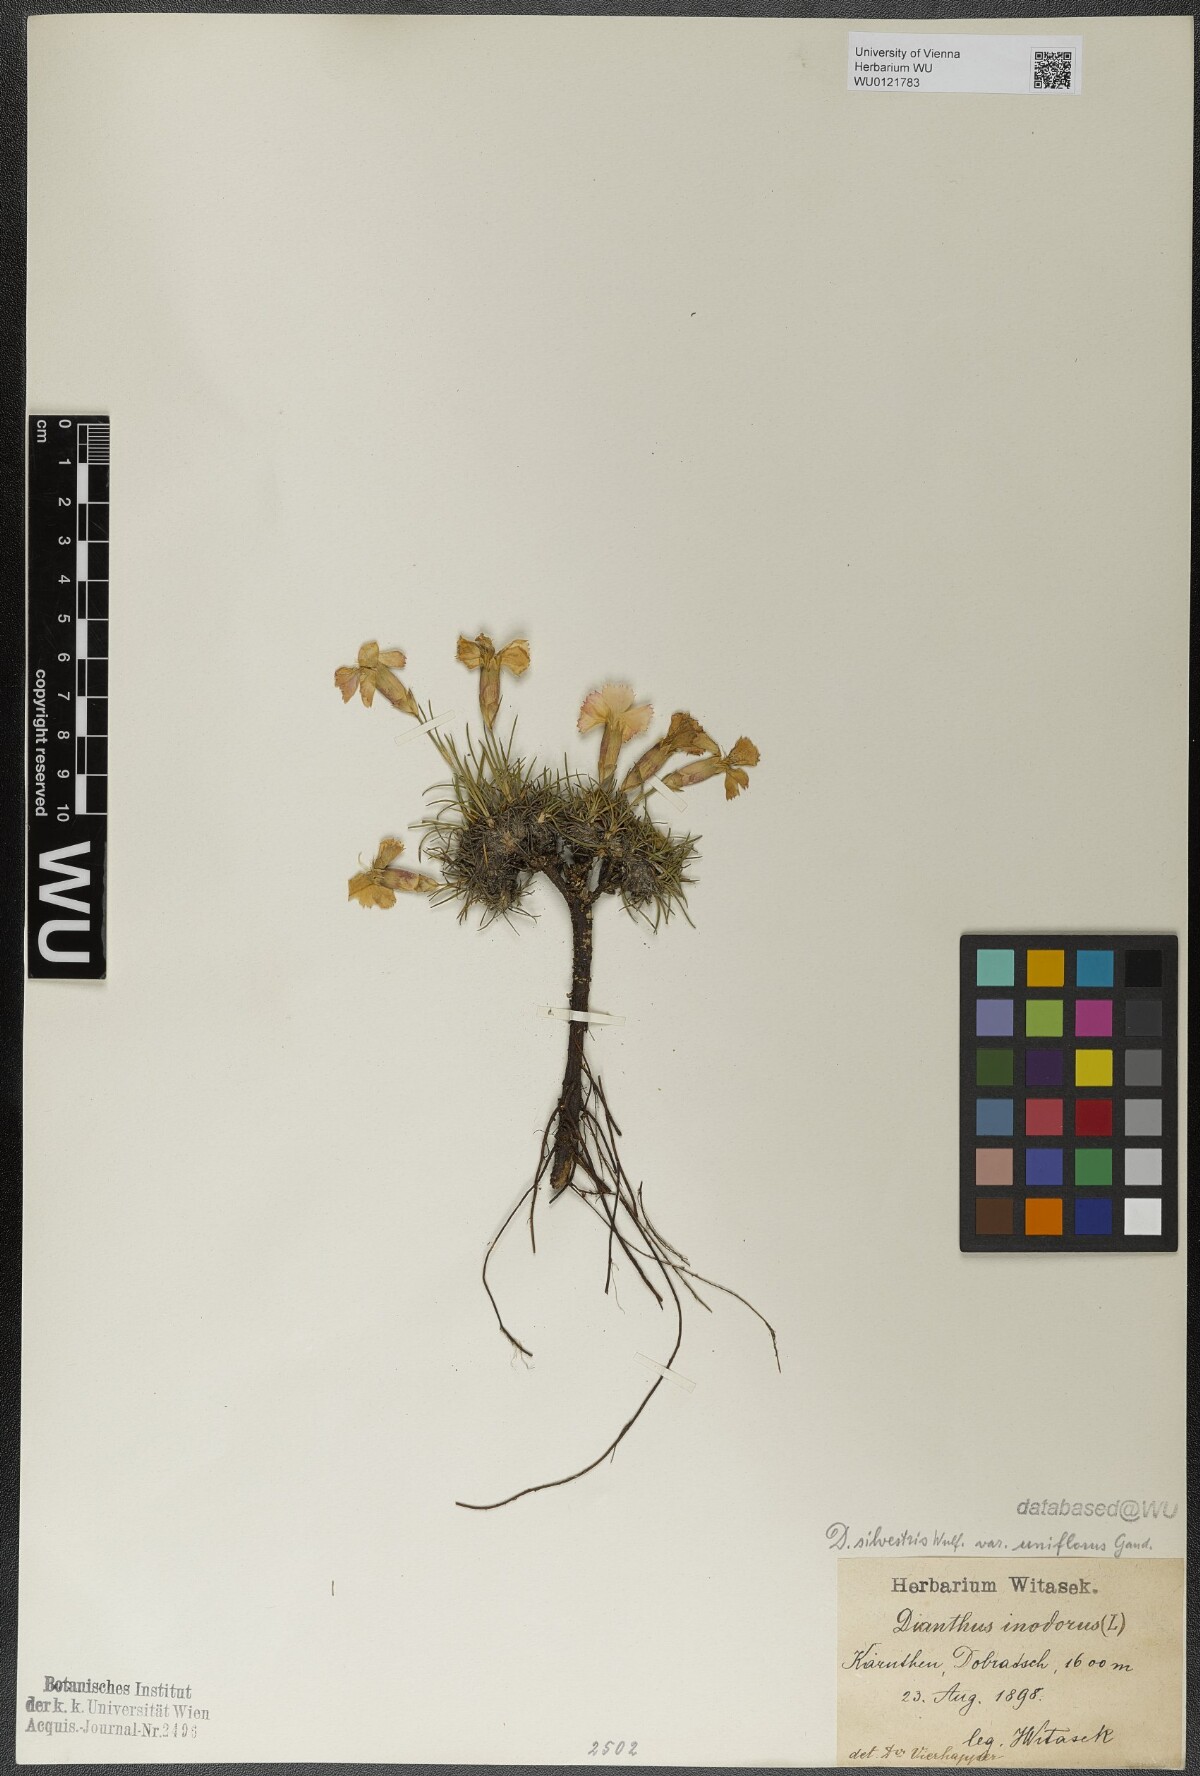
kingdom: Plantae
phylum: Tracheophyta
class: Magnoliopsida
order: Caryophyllales
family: Caryophyllaceae
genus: Dianthus
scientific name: Dianthus sylvestris
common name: Wood pink
